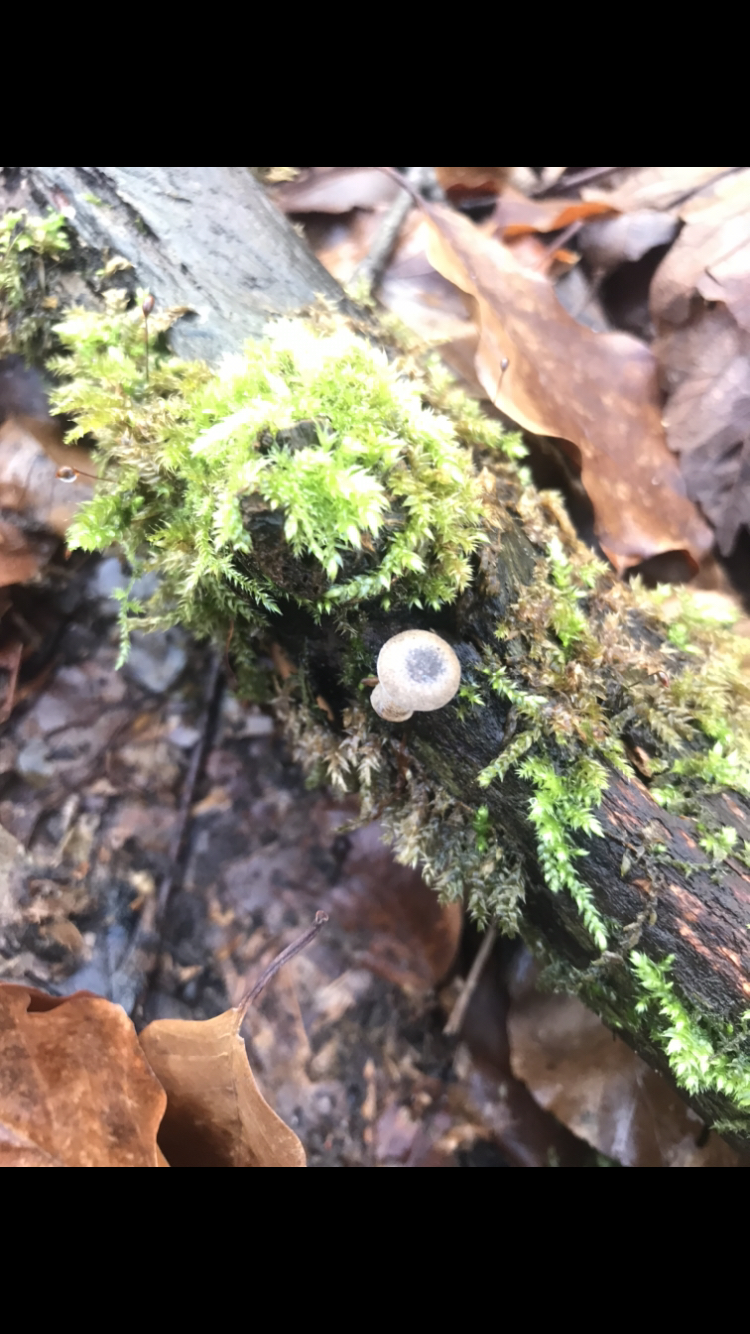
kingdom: Fungi
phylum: Basidiomycota
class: Agaricomycetes
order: Polyporales
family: Polyporaceae
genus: Lentinus
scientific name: Lentinus brumalis
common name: vinter-stilkporesvamp
